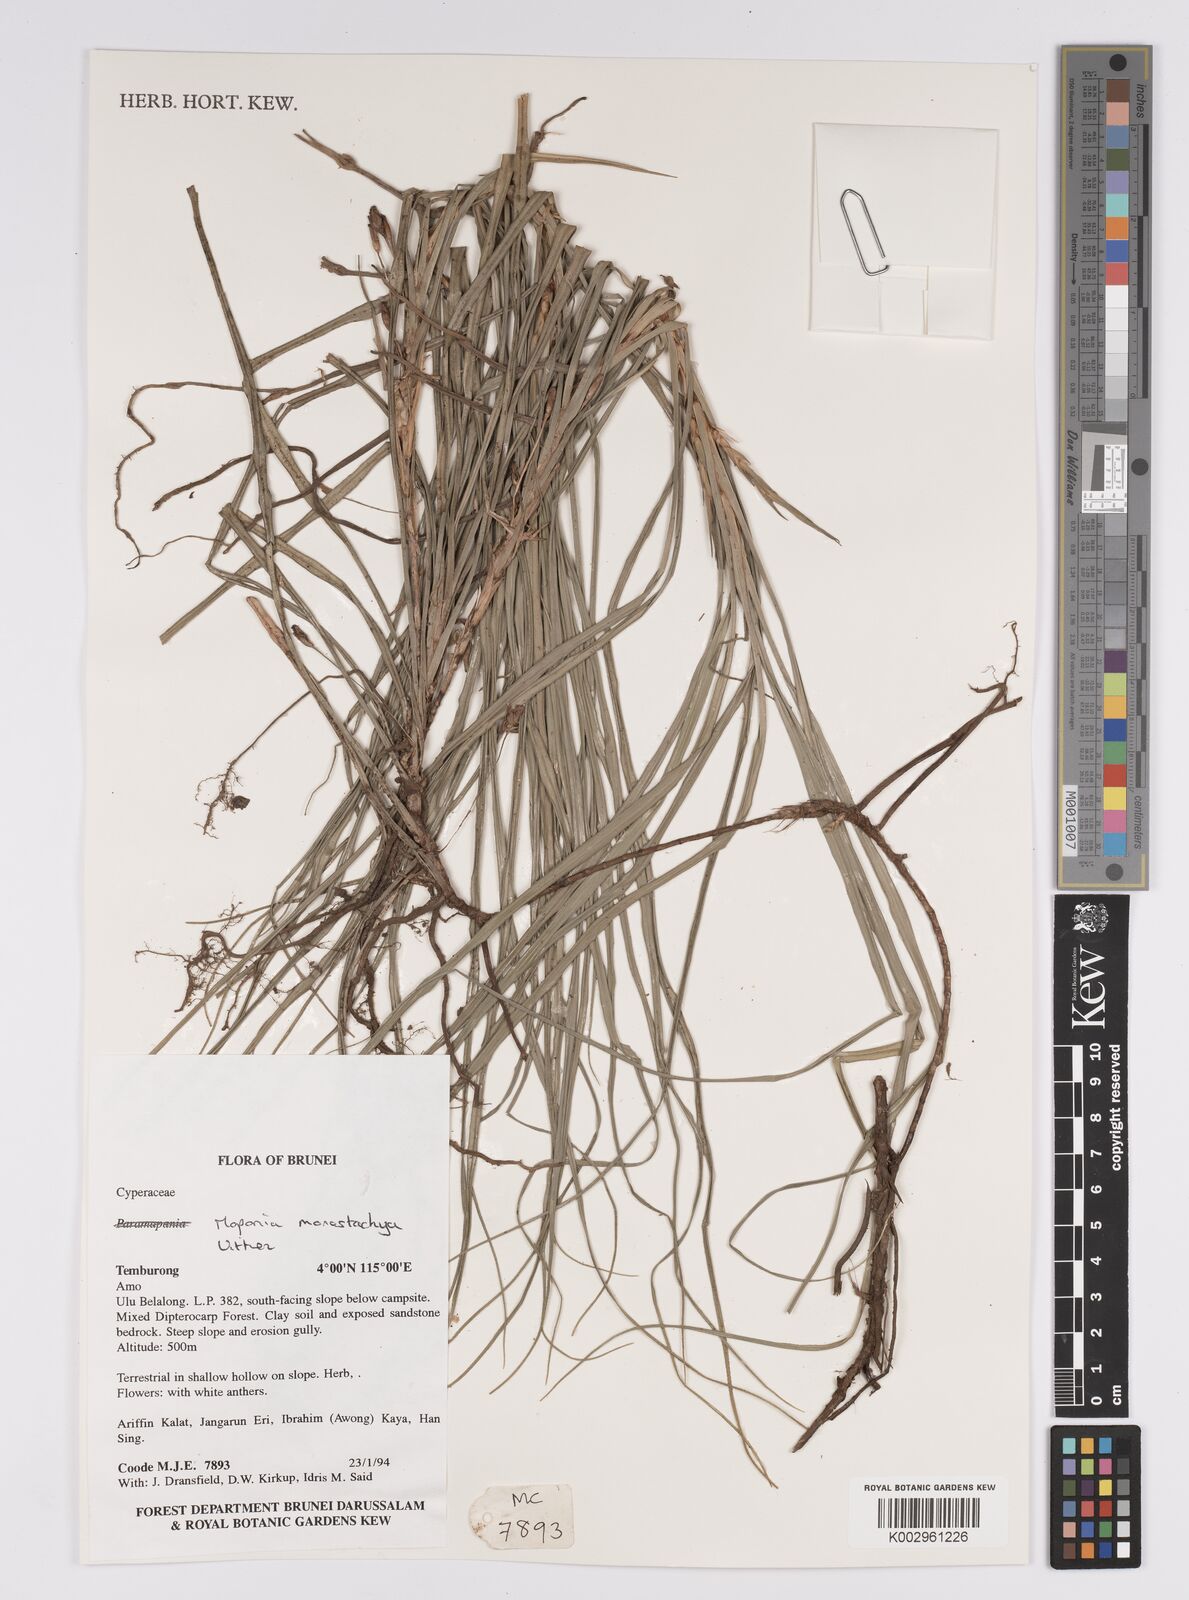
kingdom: Plantae
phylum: Tracheophyta
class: Liliopsida
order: Poales
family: Cyperaceae
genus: Mapania
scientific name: Mapania monostachya
